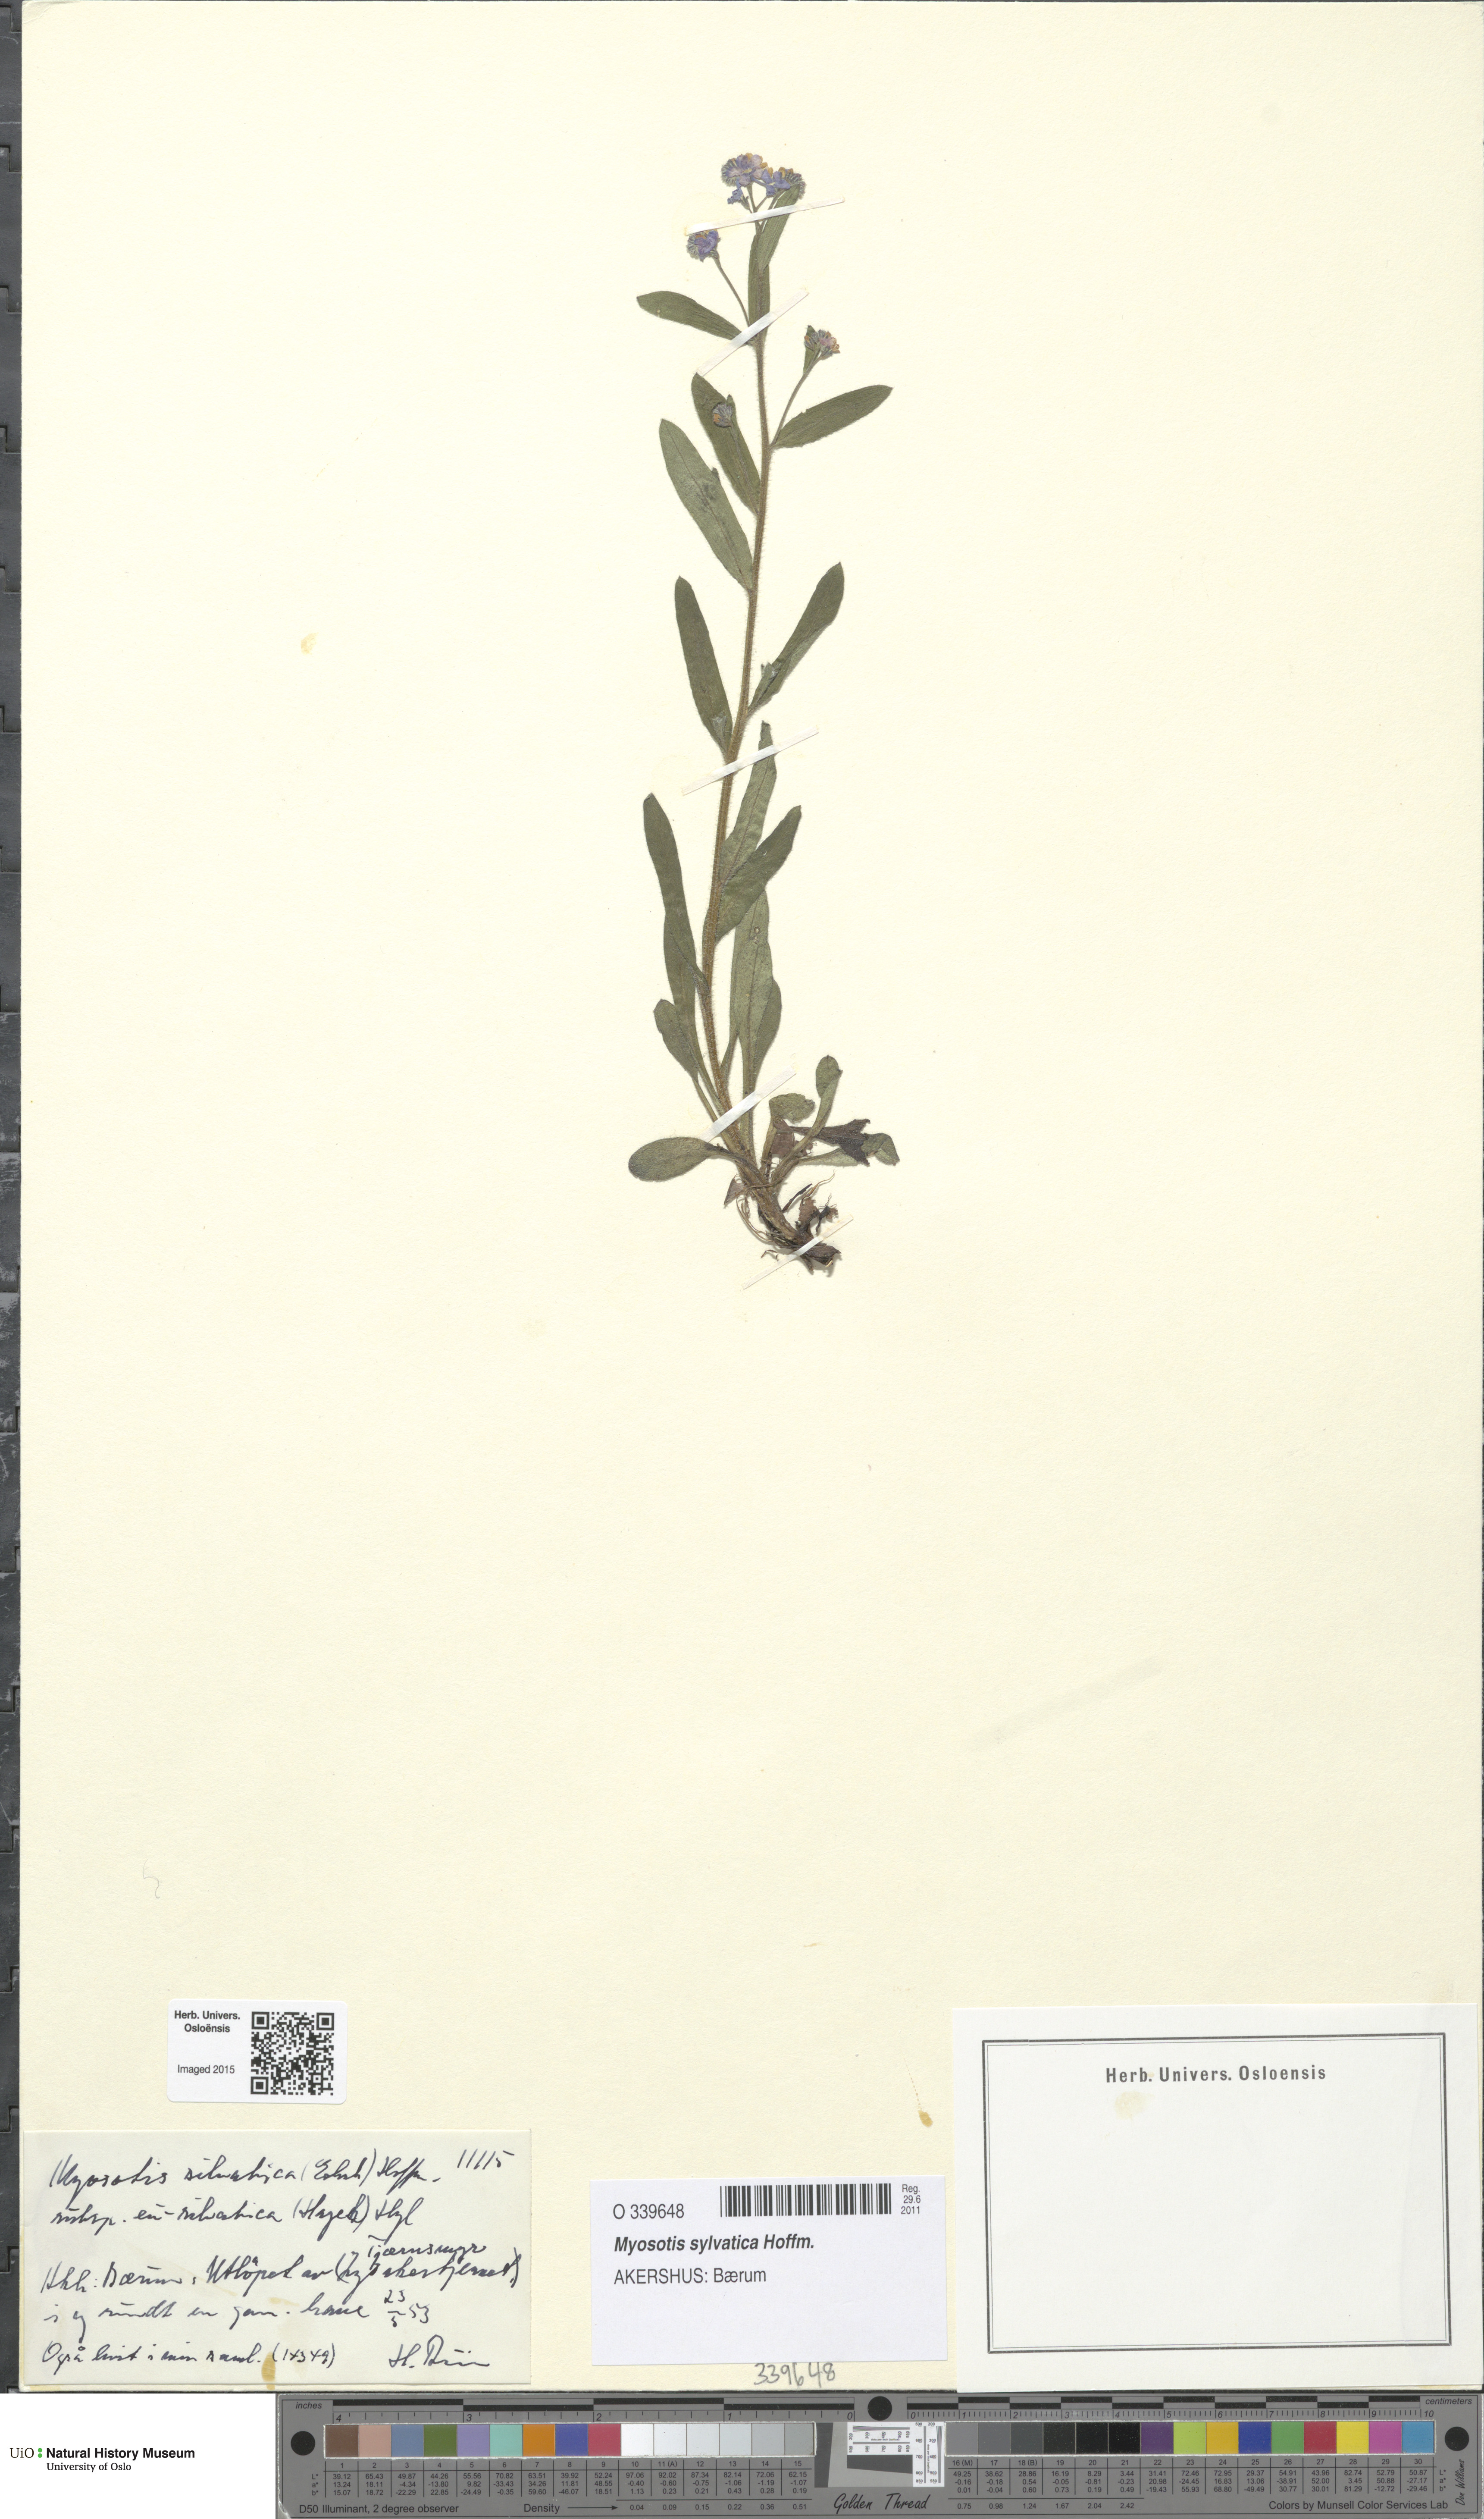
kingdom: Plantae
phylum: Tracheophyta
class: Magnoliopsida
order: Boraginales
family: Boraginaceae
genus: Myosotis
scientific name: Myosotis sylvatica
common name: Wood forget-me-not
